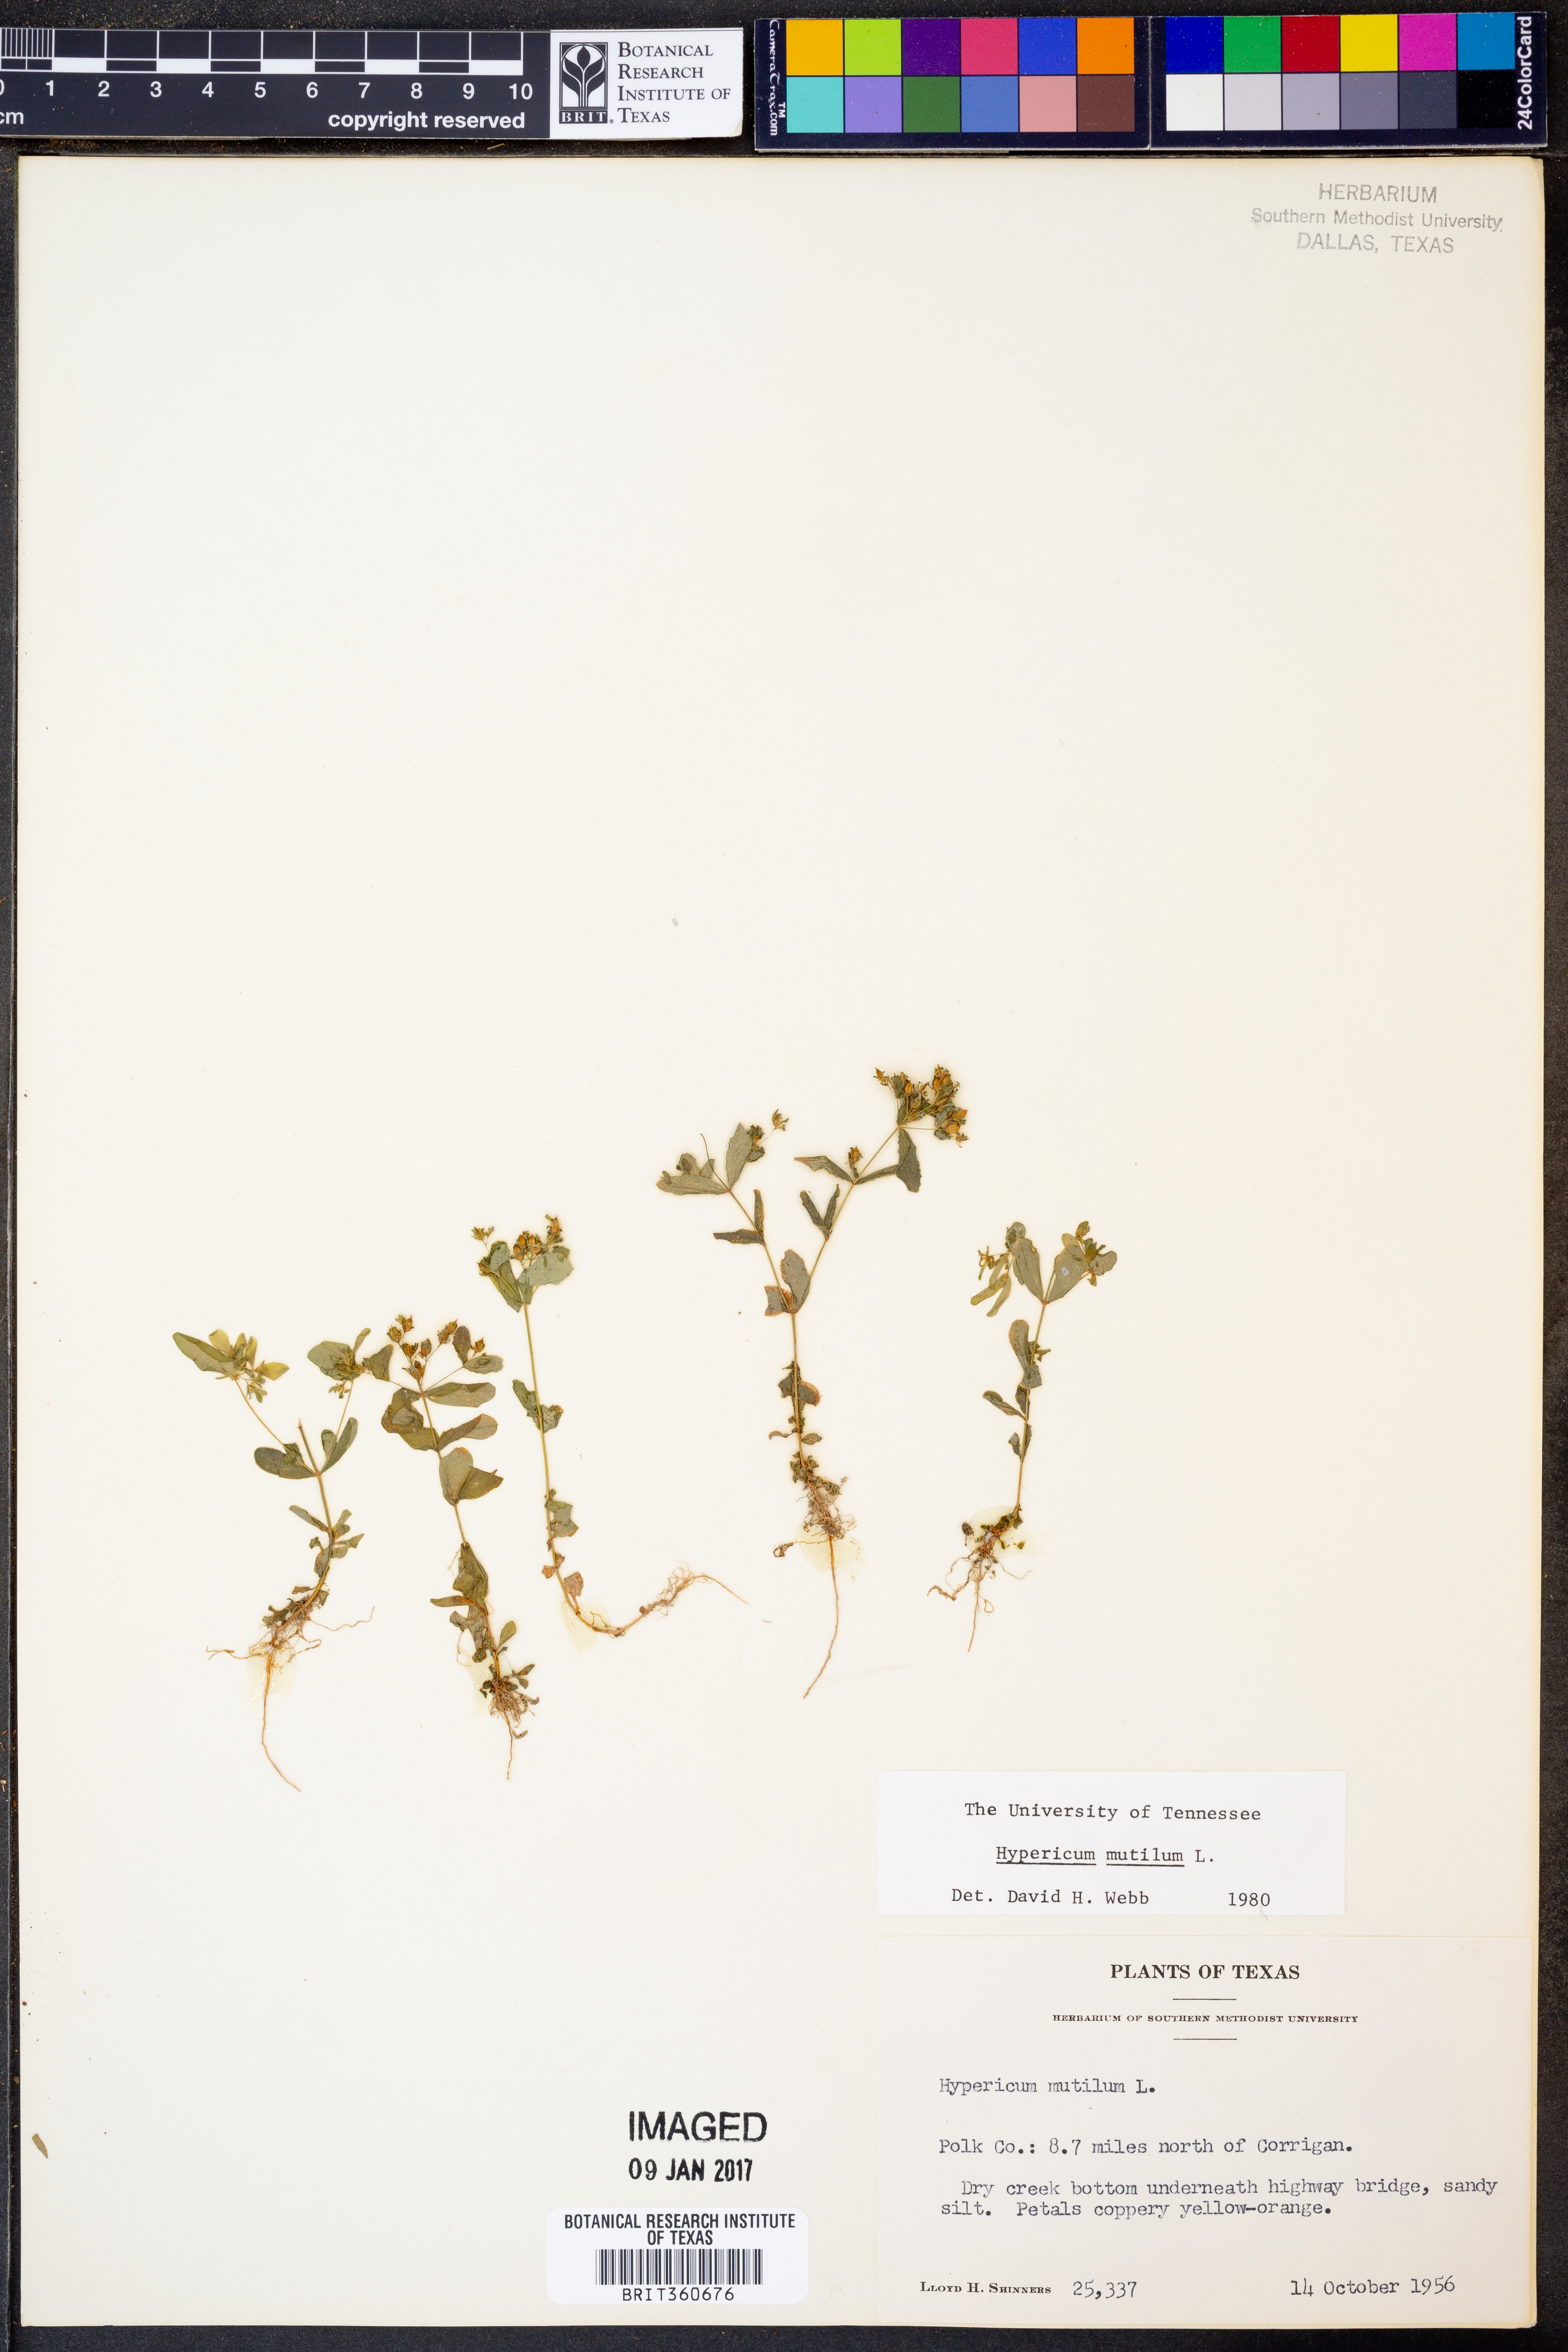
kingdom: Plantae
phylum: Tracheophyta
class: Magnoliopsida
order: Malpighiales
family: Hypericaceae
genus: Hypericum
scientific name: Hypericum mutilum
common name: Dwarf st. john's-wort
